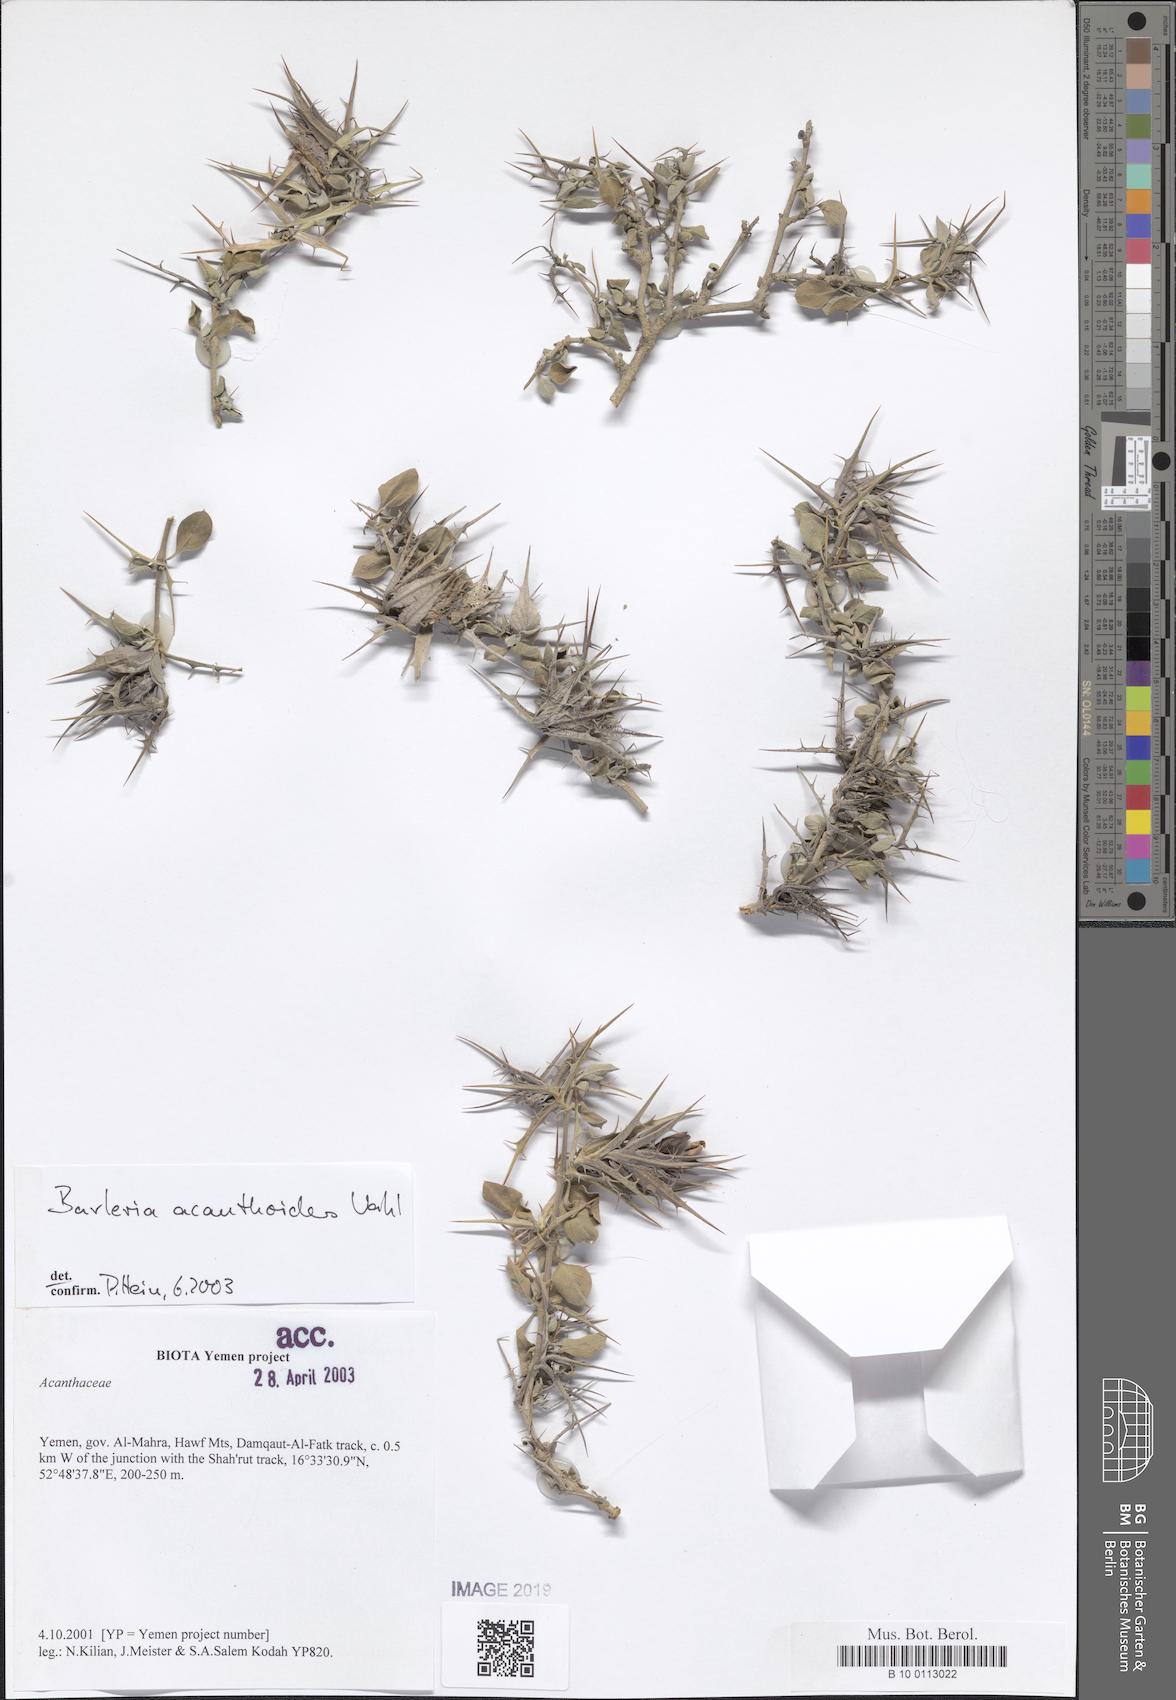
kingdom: Plantae
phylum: Tracheophyta
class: Magnoliopsida
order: Lamiales
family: Acanthaceae
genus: Barleria
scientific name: Barleria acanthoides
